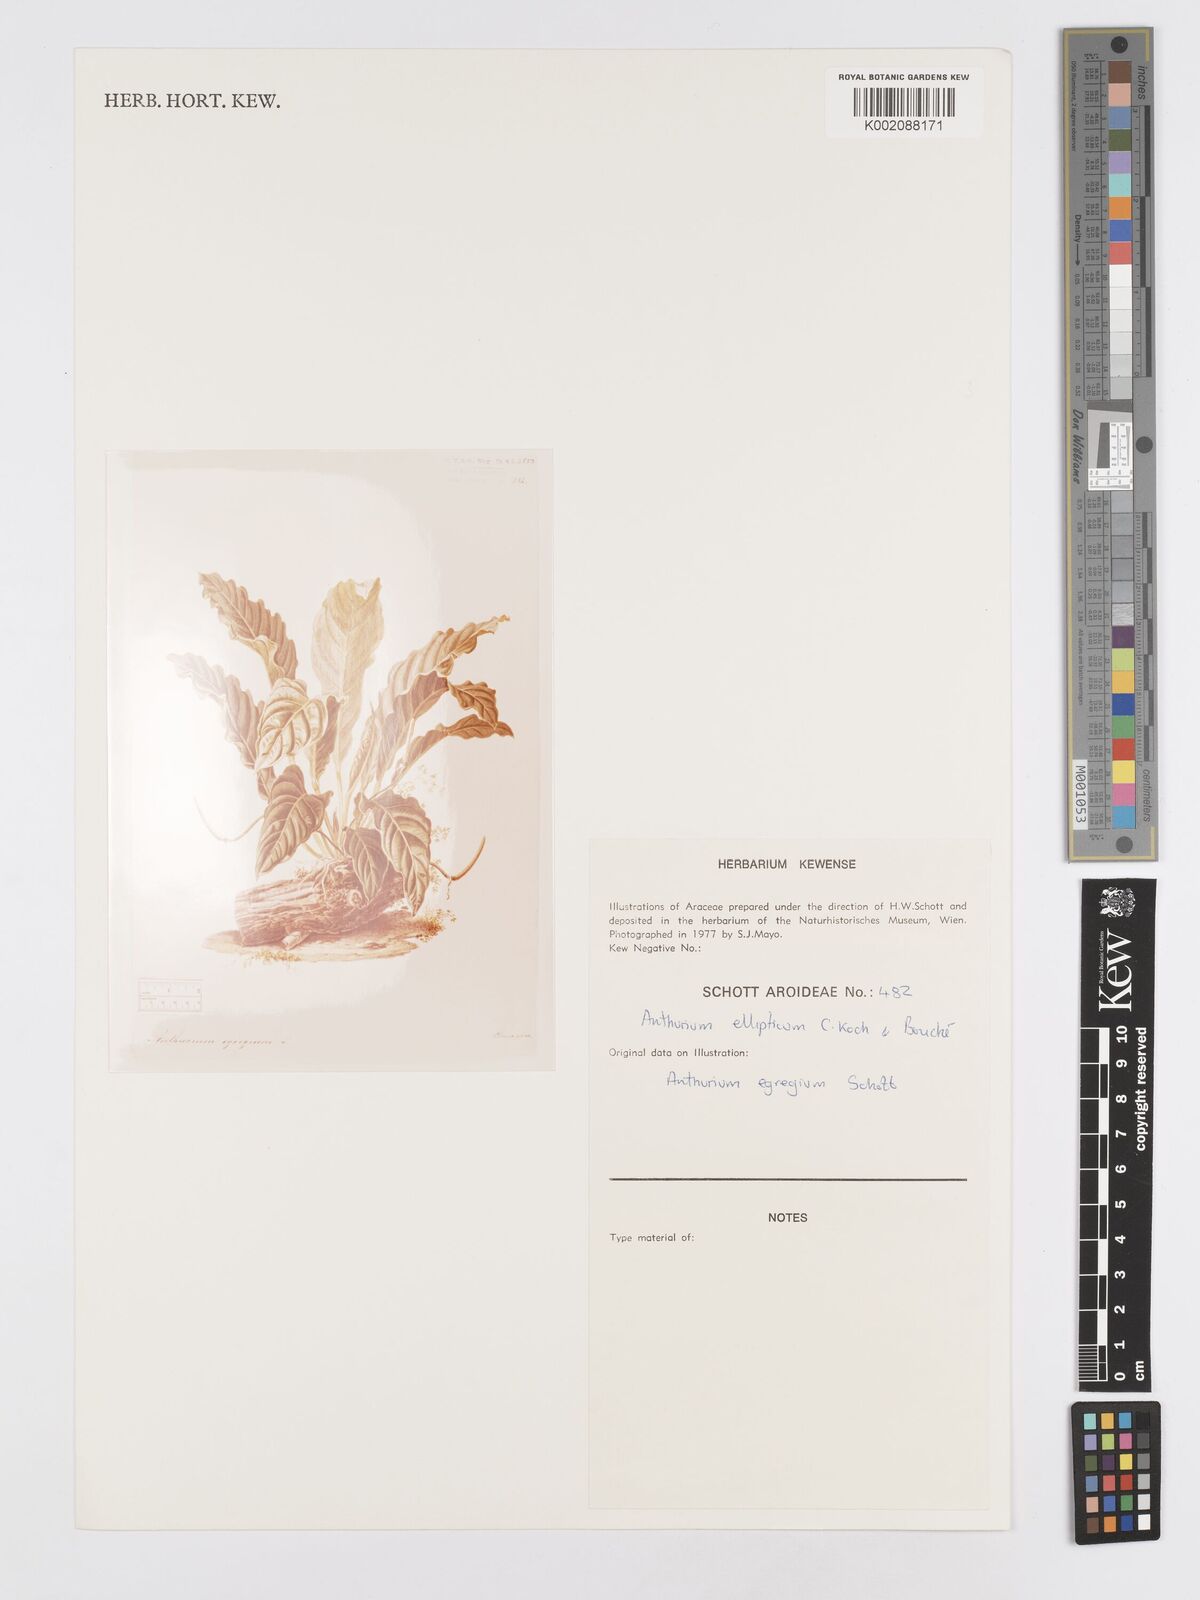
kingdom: Plantae
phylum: Tracheophyta
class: Liliopsida
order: Alismatales
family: Araceae
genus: Anthurium
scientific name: Anthurium crassinervium
